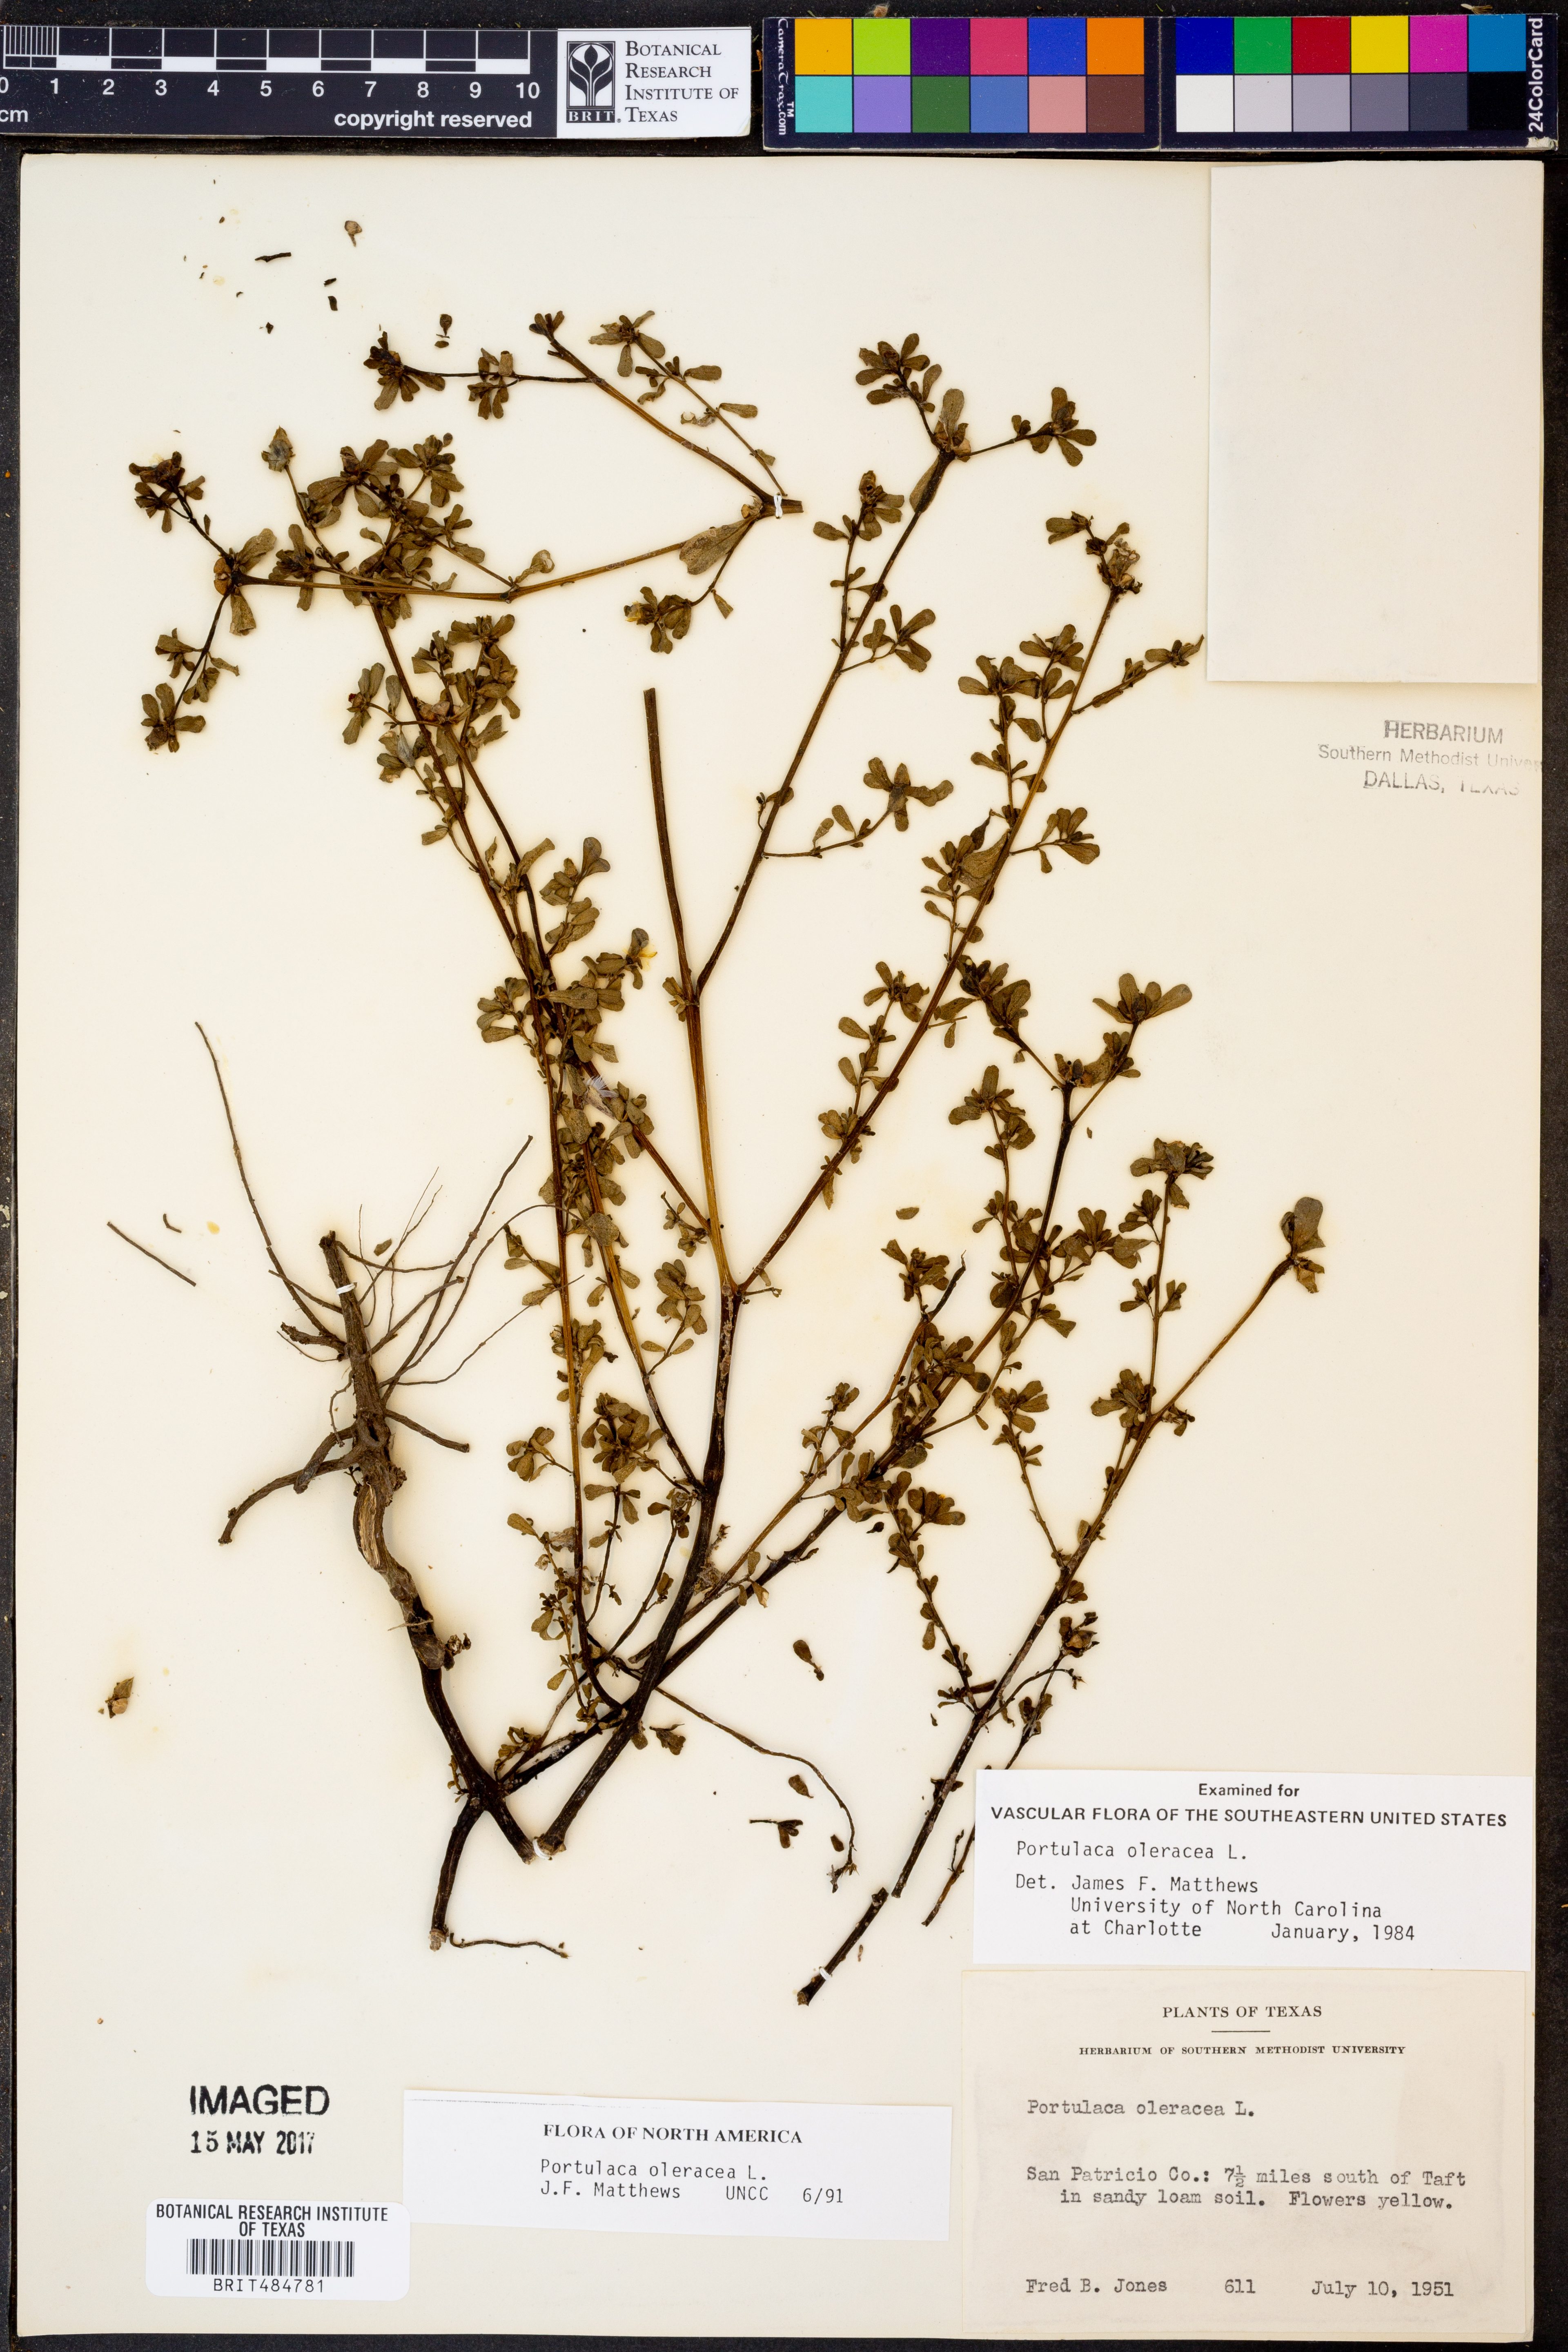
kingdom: Plantae
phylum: Tracheophyta
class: Magnoliopsida
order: Caryophyllales
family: Portulacaceae
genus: Portulaca
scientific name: Portulaca oleracea
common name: Common purslane
